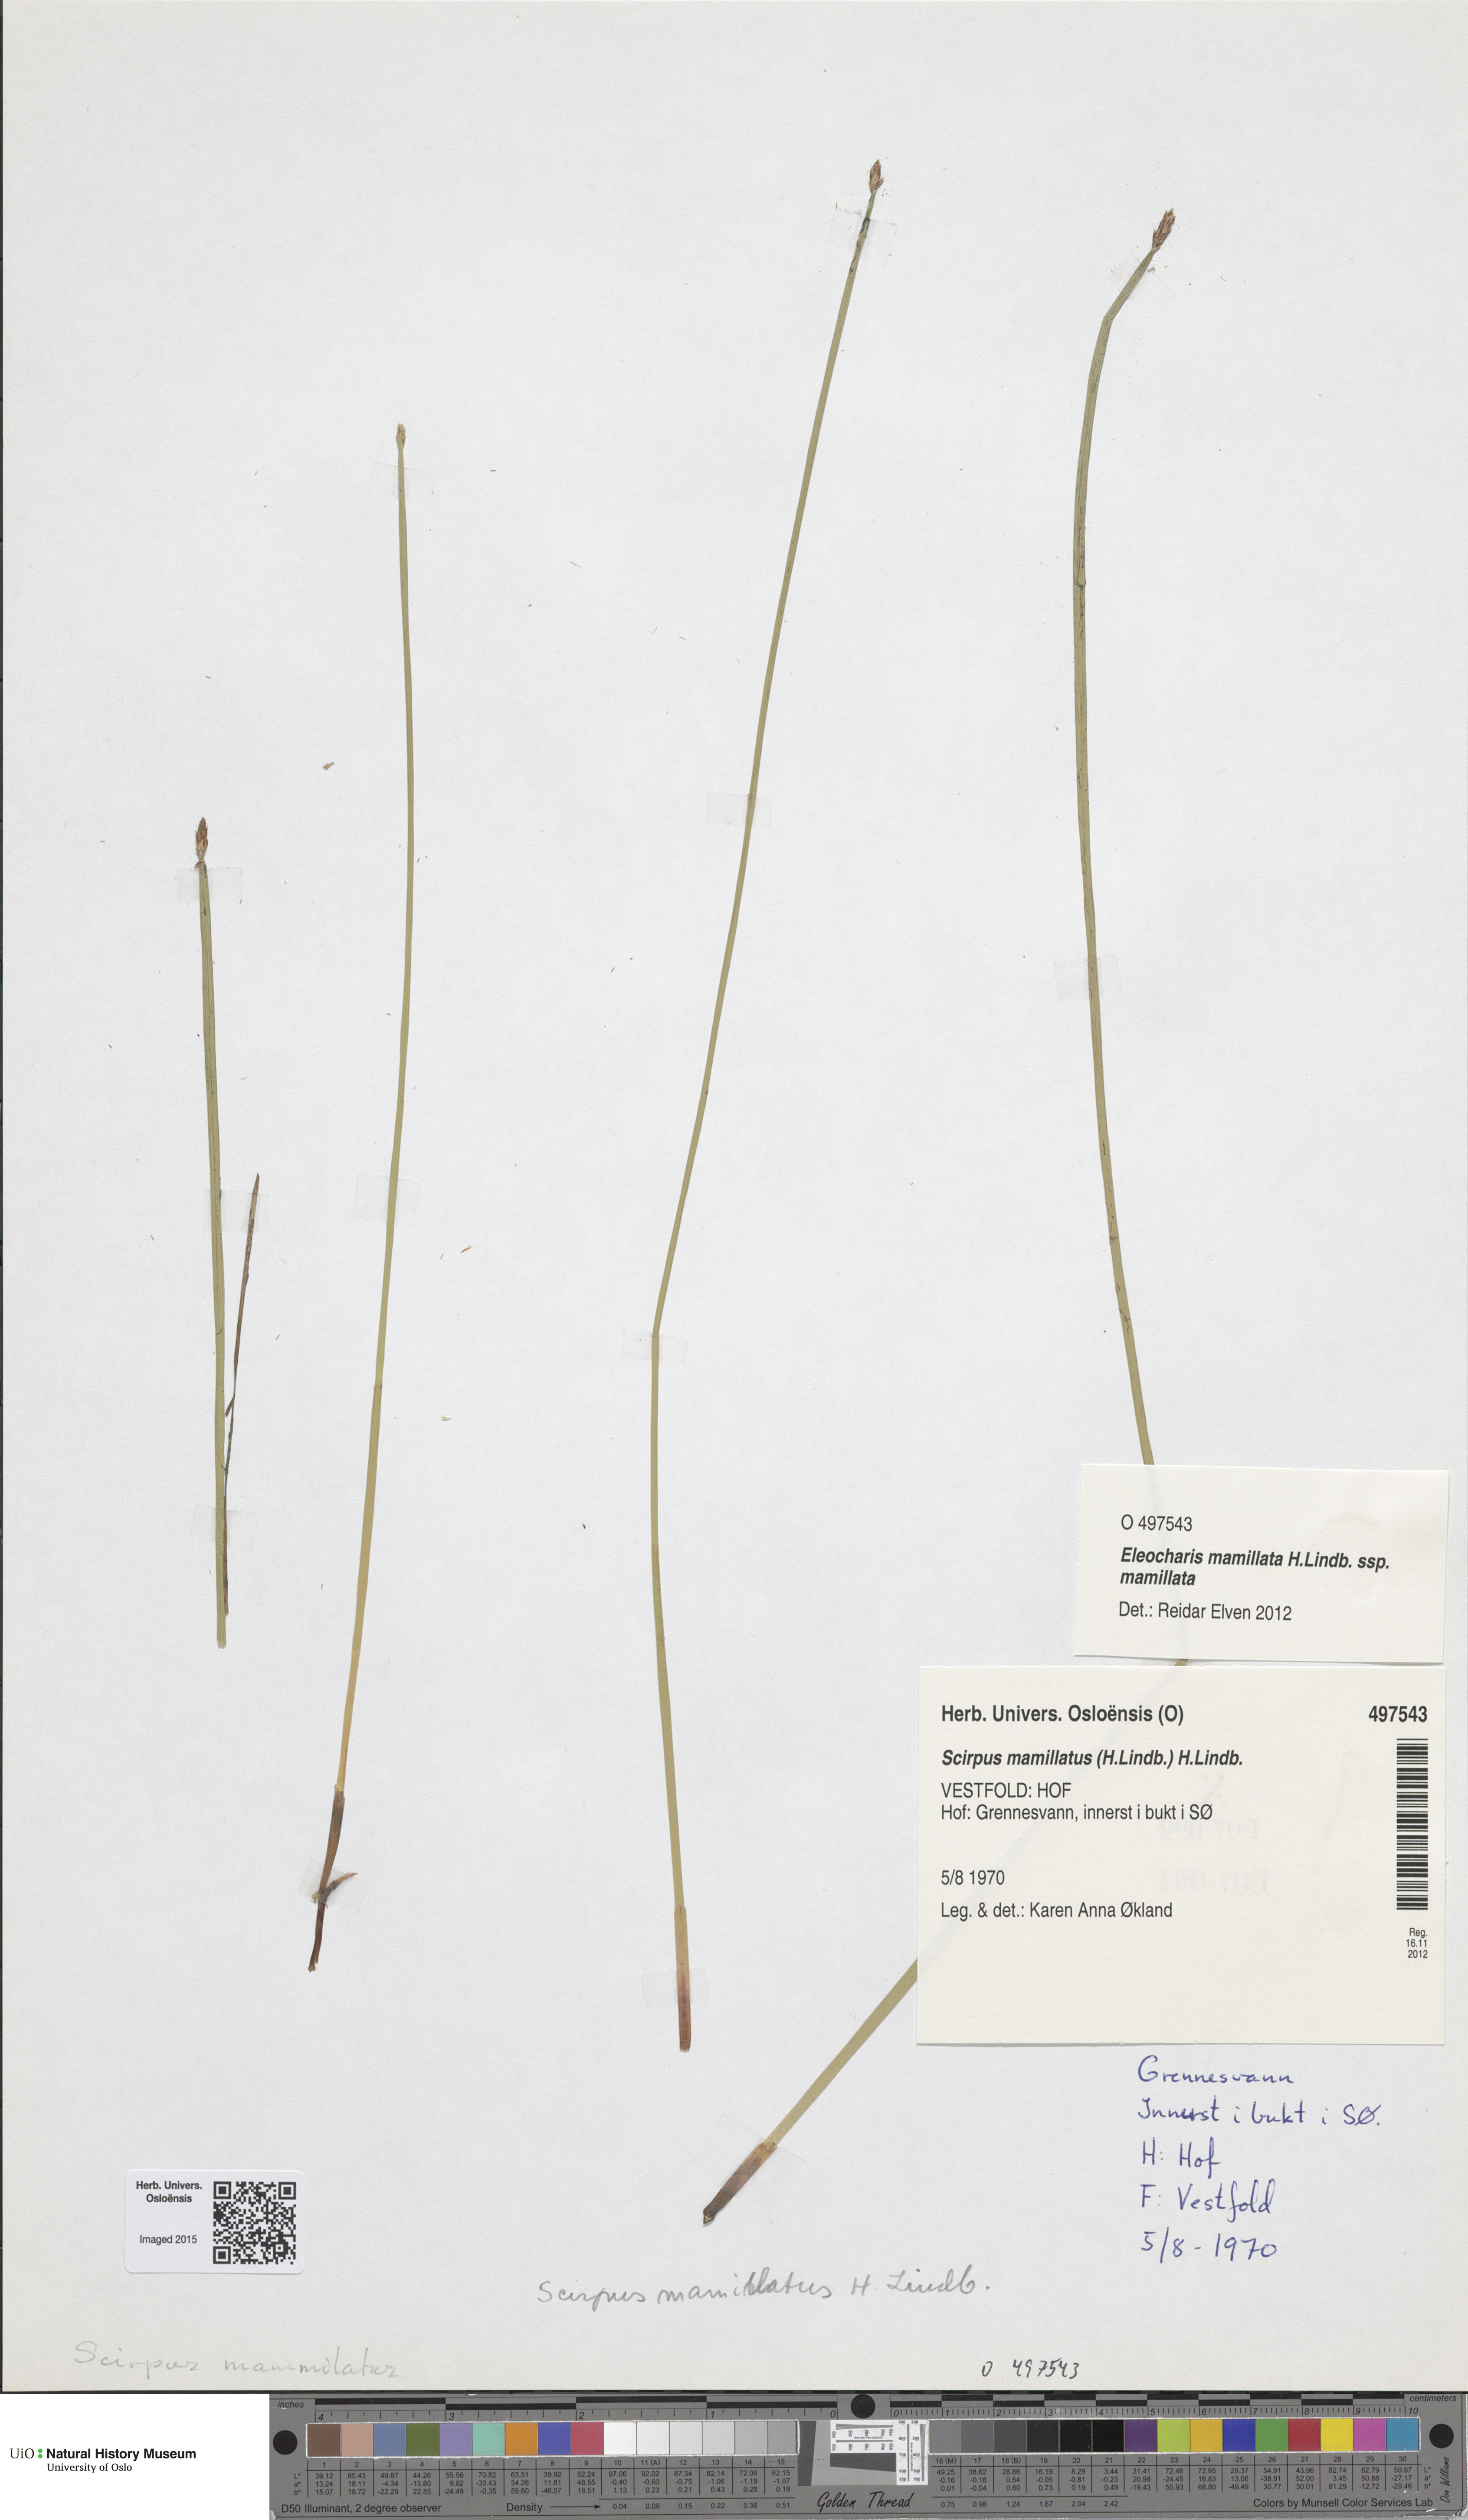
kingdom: Plantae
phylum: Tracheophyta
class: Liliopsida
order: Poales
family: Cyperaceae
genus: Eleocharis
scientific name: Eleocharis mamillata
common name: Northern spike-rush
